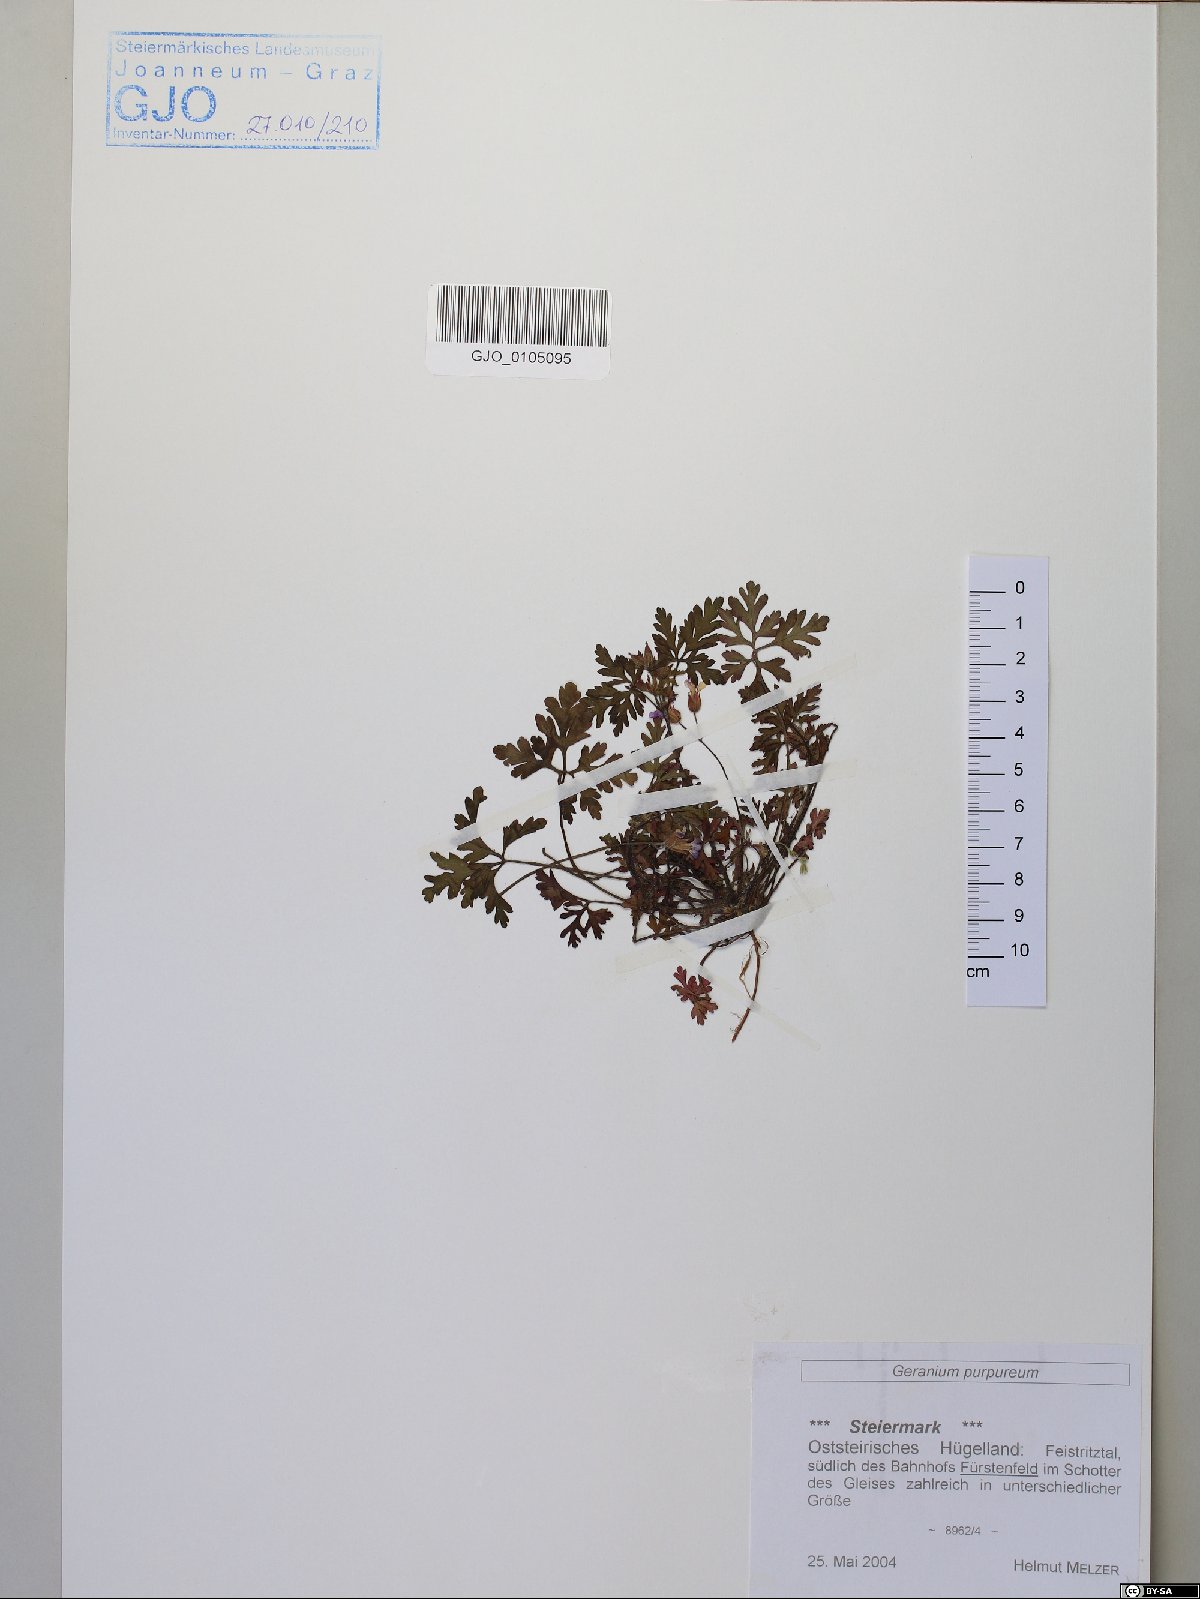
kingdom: Plantae
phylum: Tracheophyta
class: Magnoliopsida
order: Geraniales
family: Geraniaceae
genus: Geranium
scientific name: Geranium purpureum
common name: Little-robin
